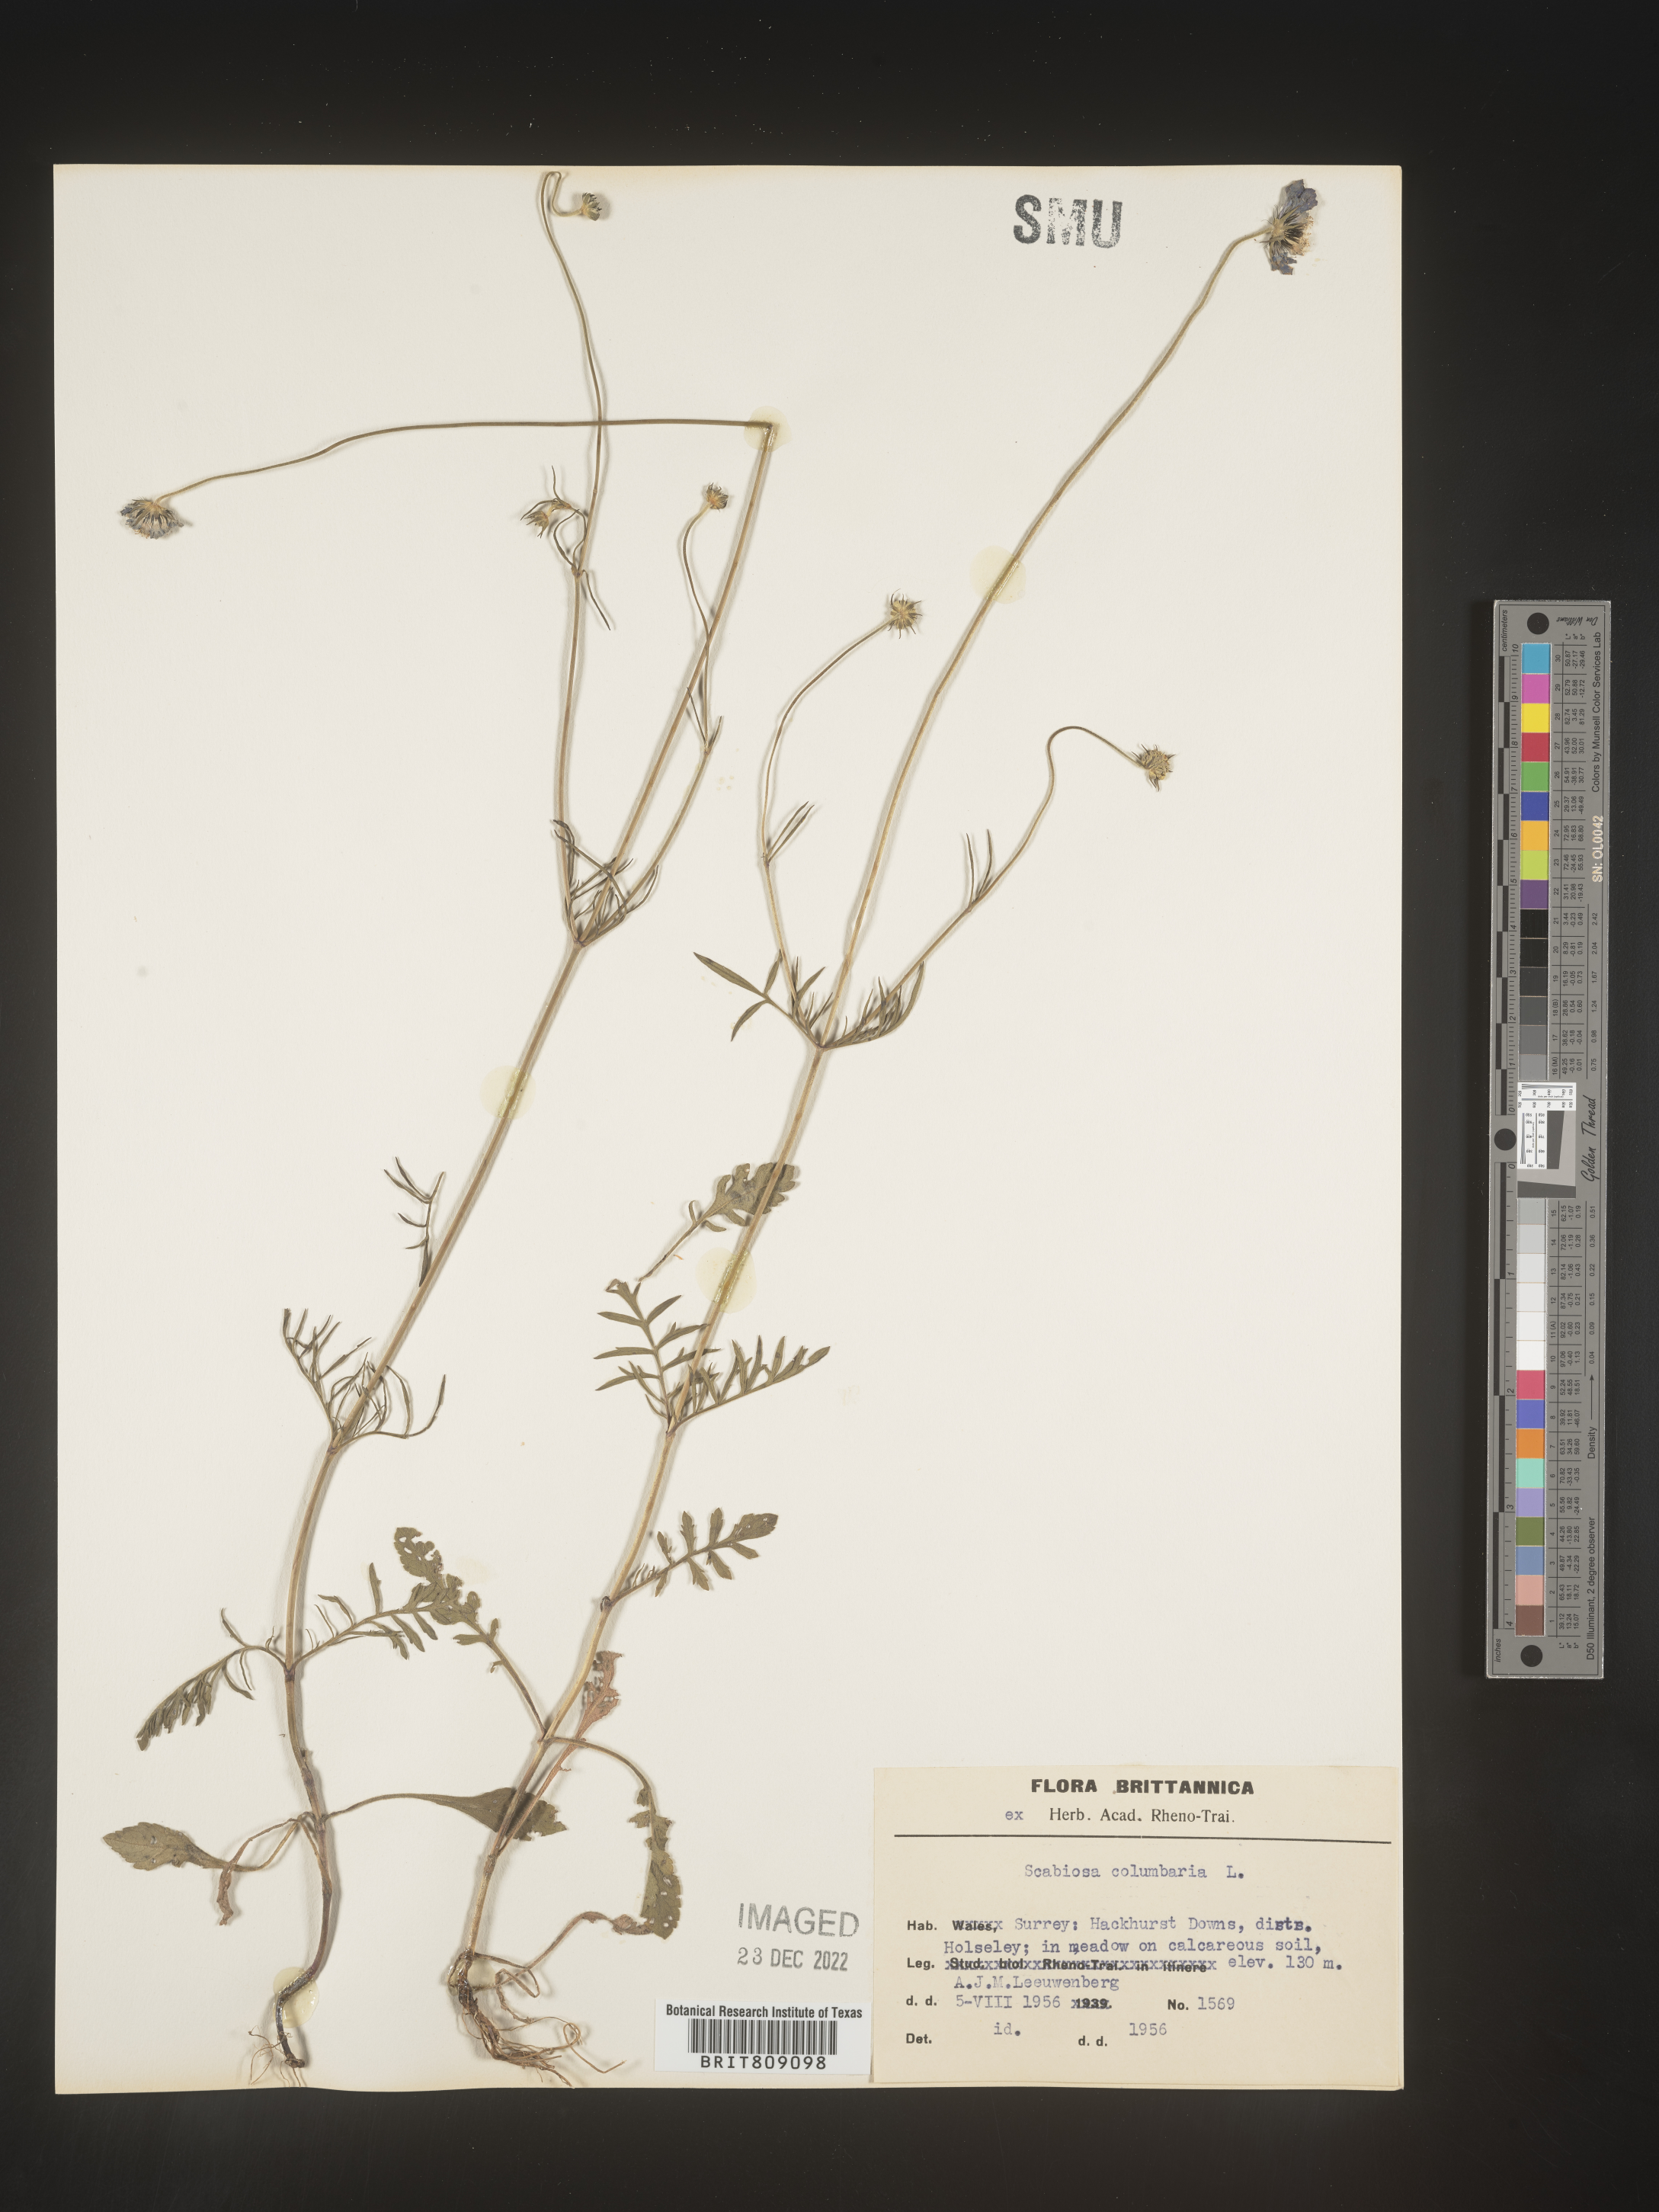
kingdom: Plantae
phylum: Tracheophyta
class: Magnoliopsida
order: Dipsacales
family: Caprifoliaceae
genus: Scabiosa
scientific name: Scabiosa
